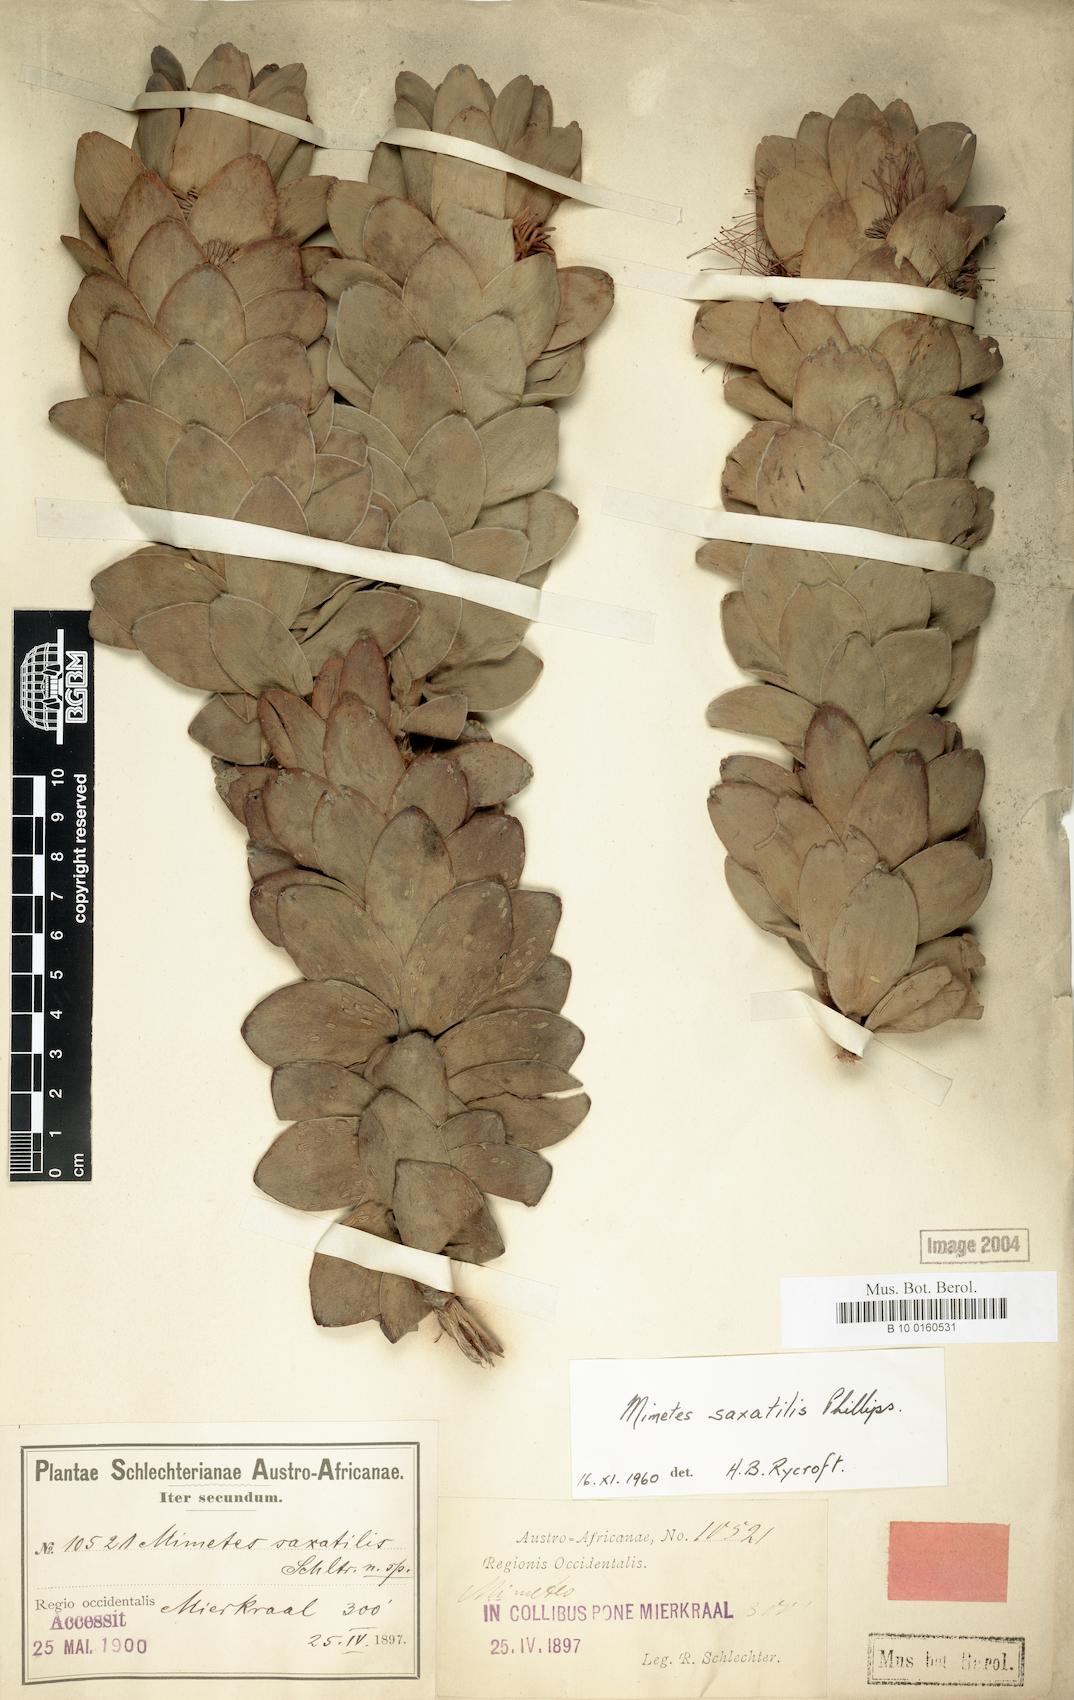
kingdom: Plantae
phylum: Tracheophyta
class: Magnoliopsida
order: Proteales
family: Proteaceae
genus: Mimetes
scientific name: Mimetes saxatilis
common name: Limestone pagoda
